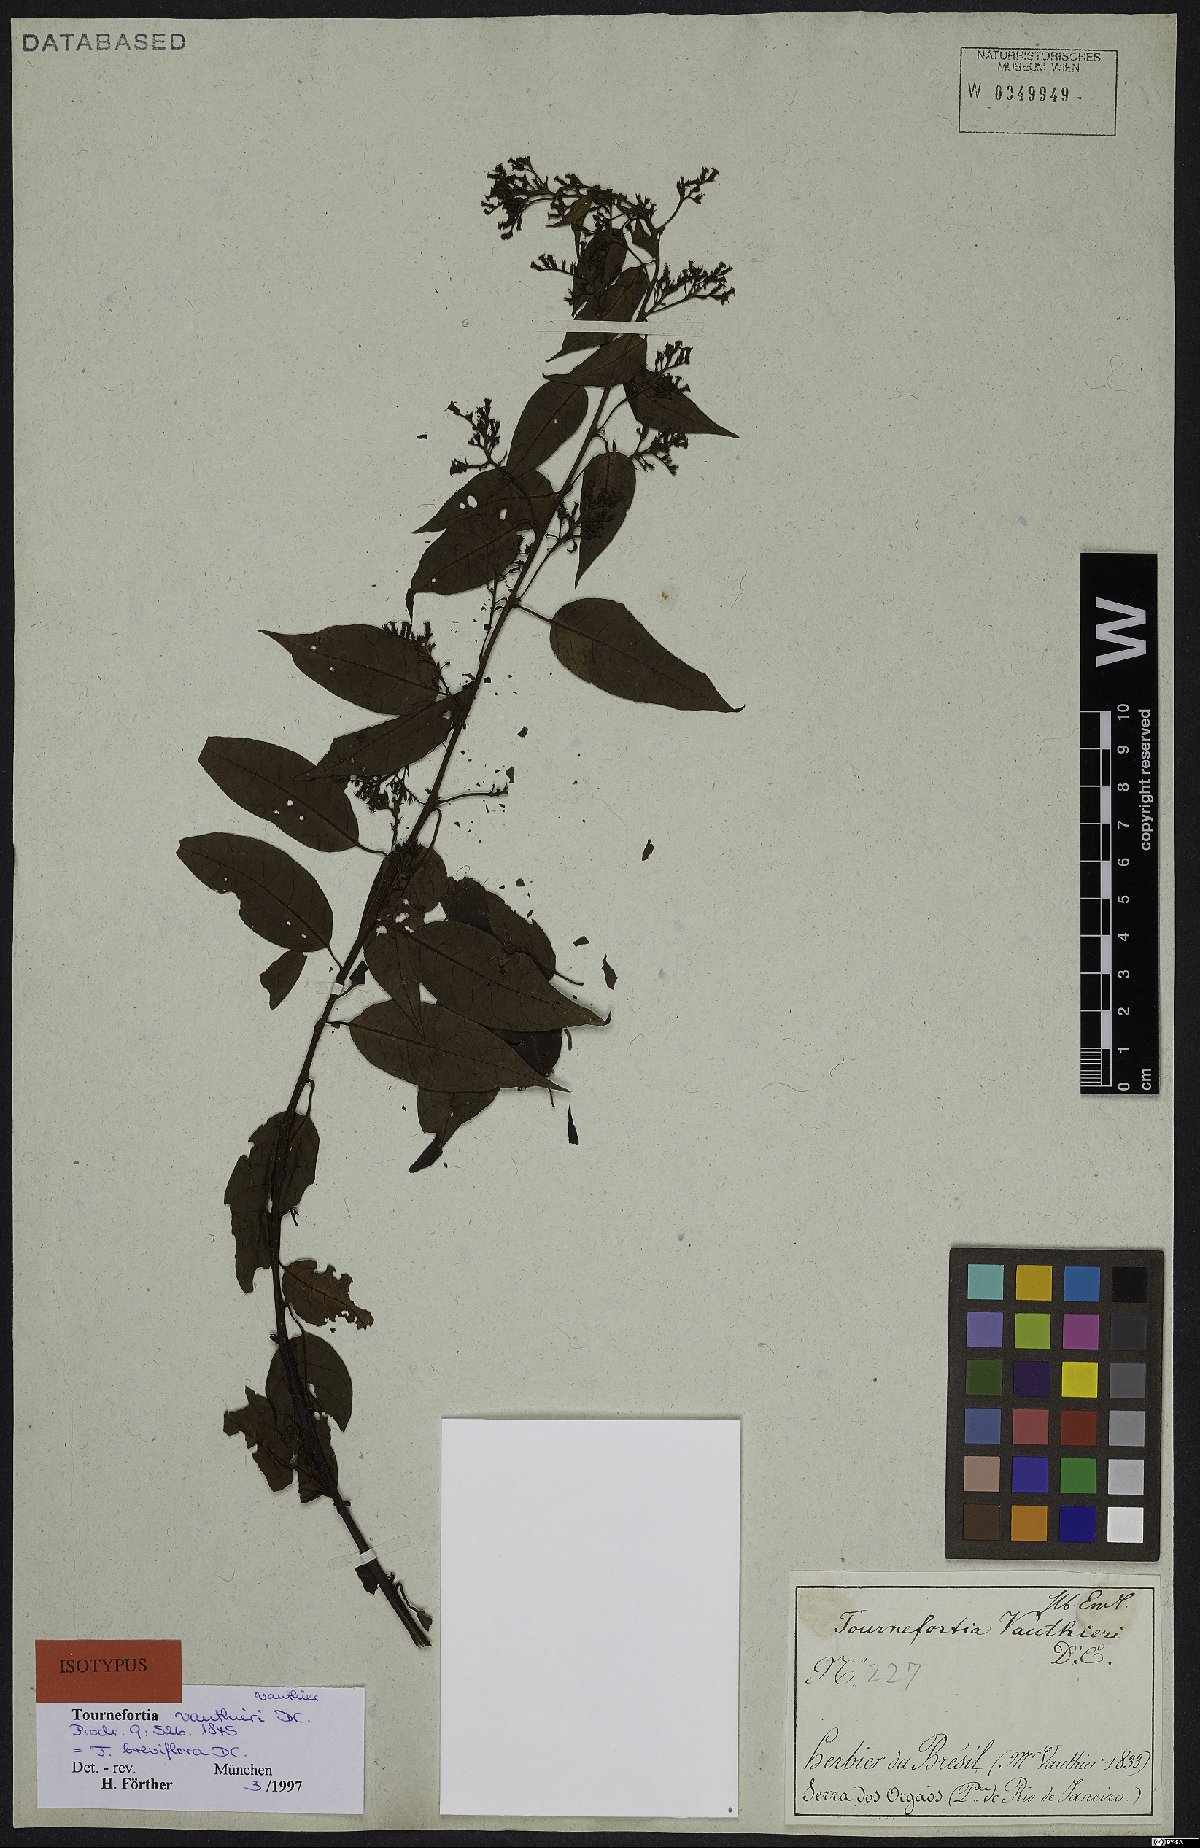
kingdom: Plantae
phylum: Tracheophyta
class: Magnoliopsida
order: Boraginales
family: Heliotropiaceae
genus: Myriopus
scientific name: Myriopus breviflorus
